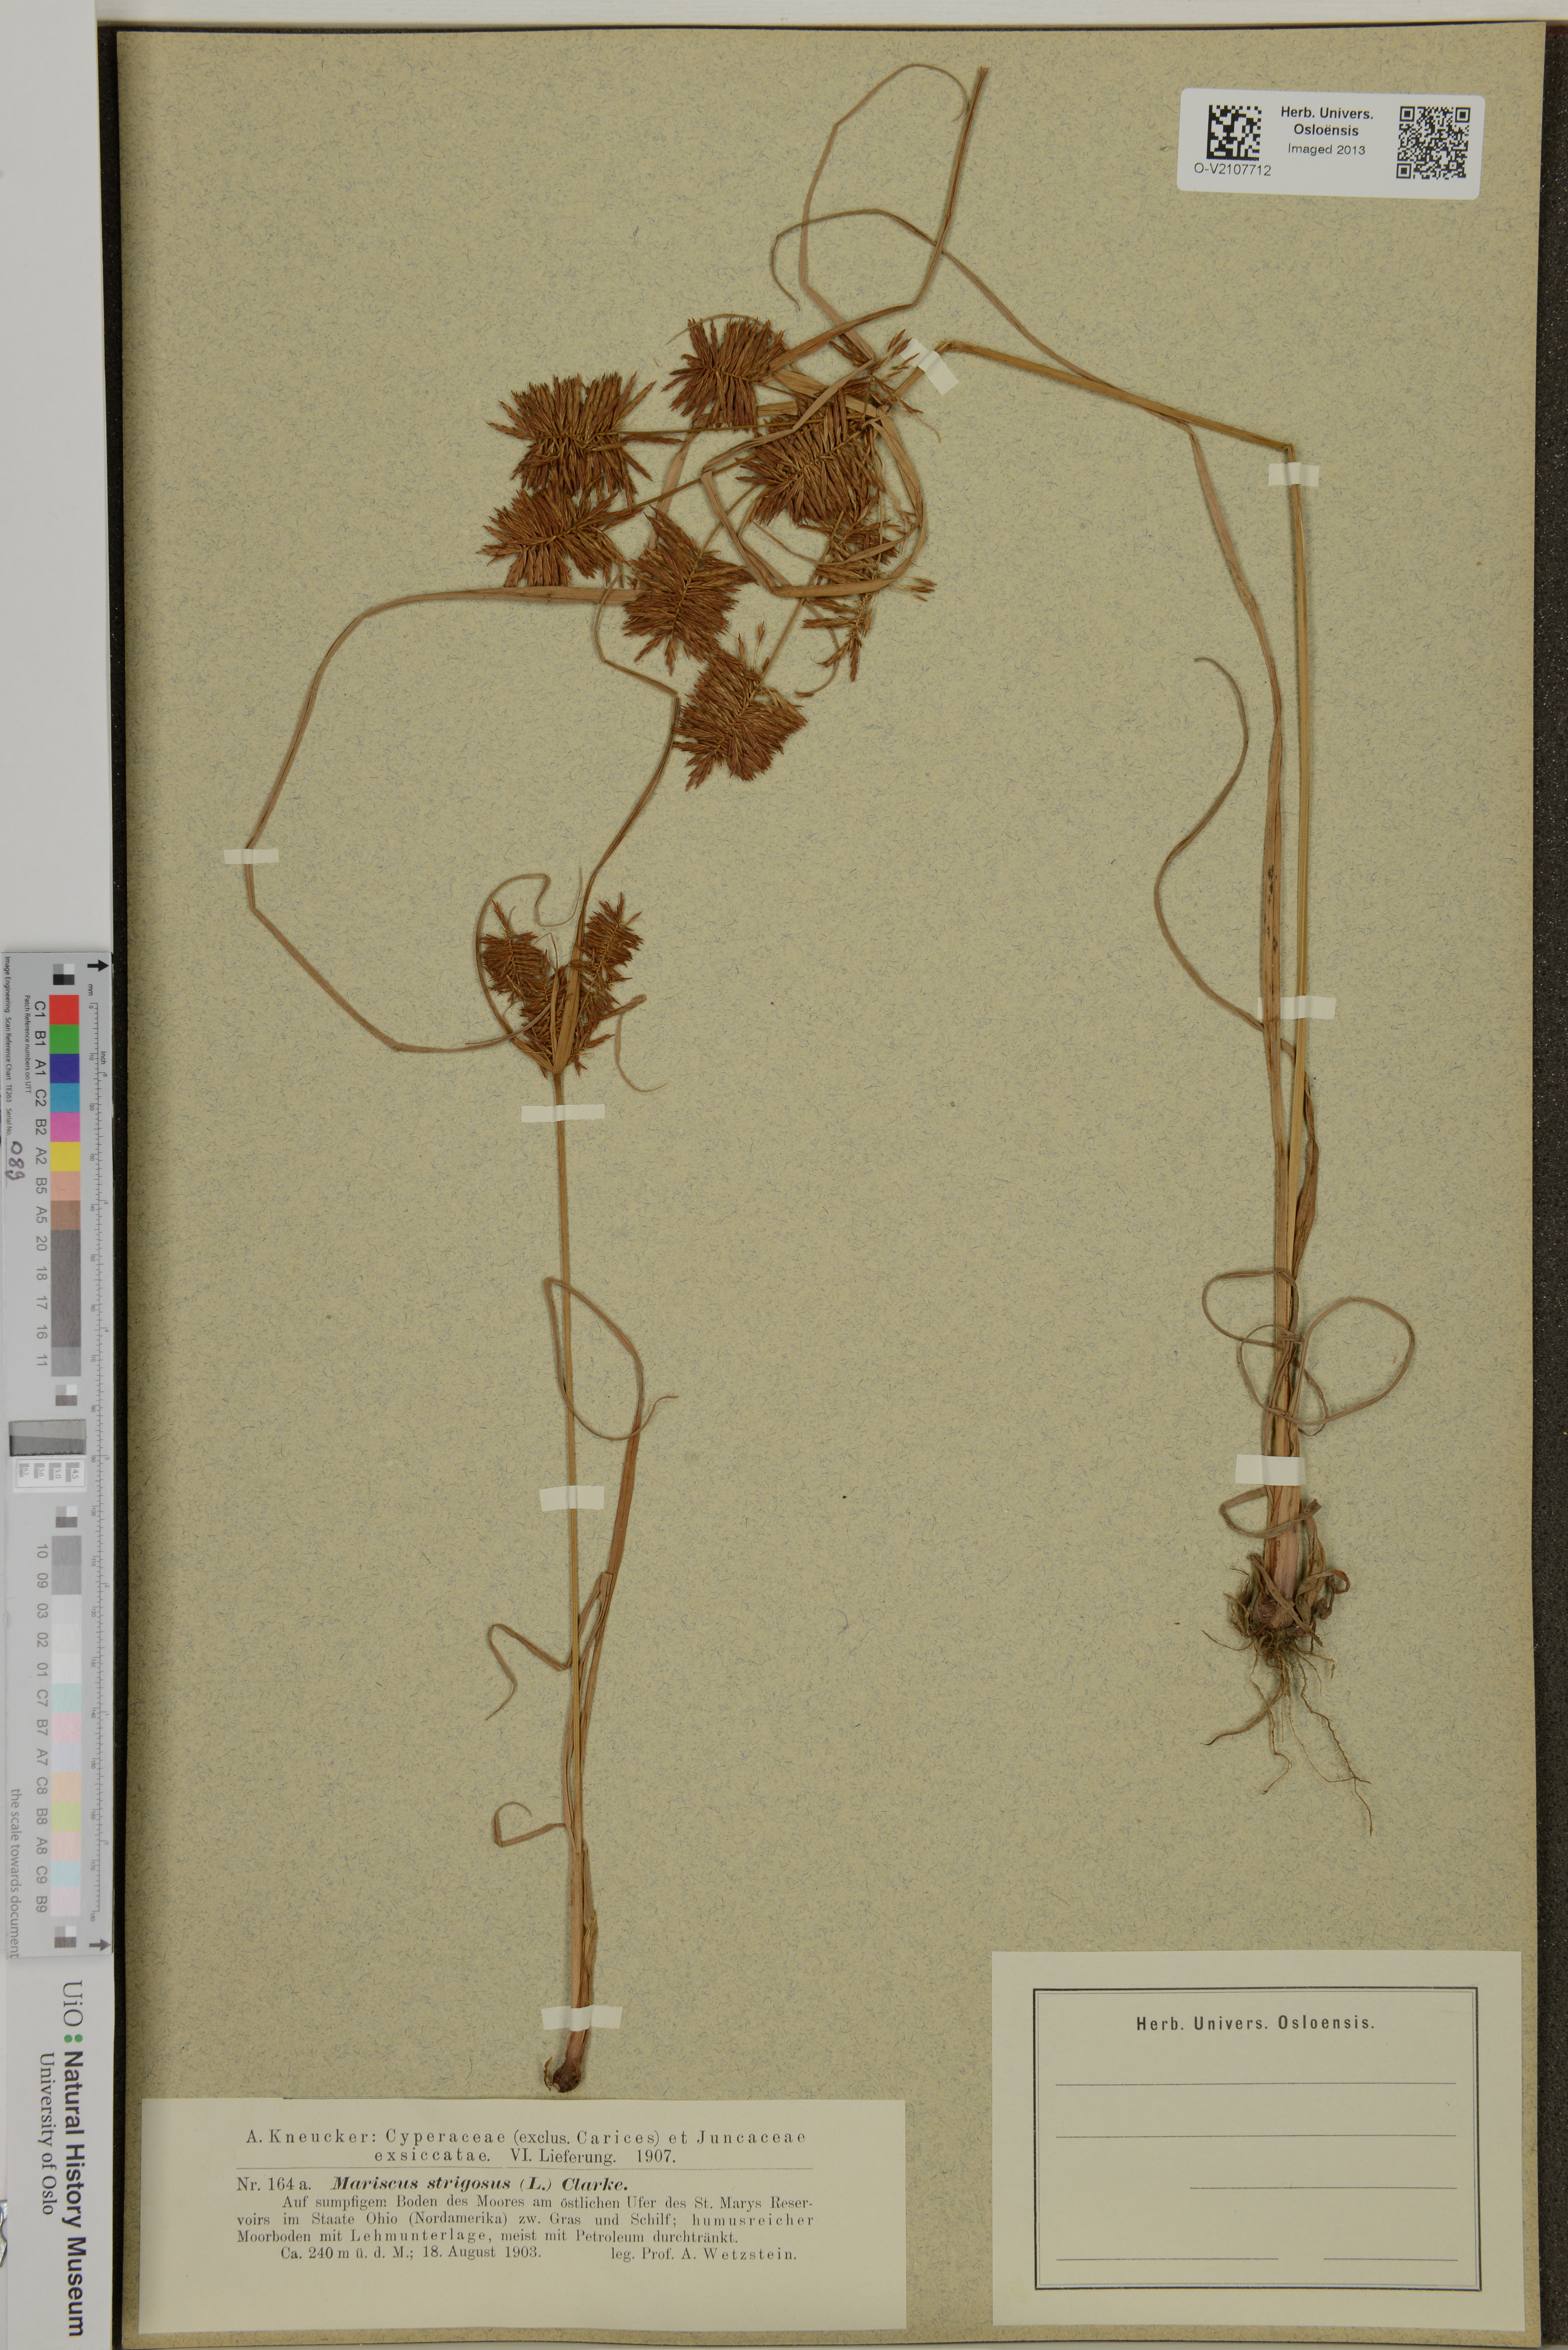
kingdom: Plantae
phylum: Tracheophyta
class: Liliopsida
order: Poales
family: Cyperaceae
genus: Cyperus
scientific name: Cyperus strigosus
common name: False nutsedge
